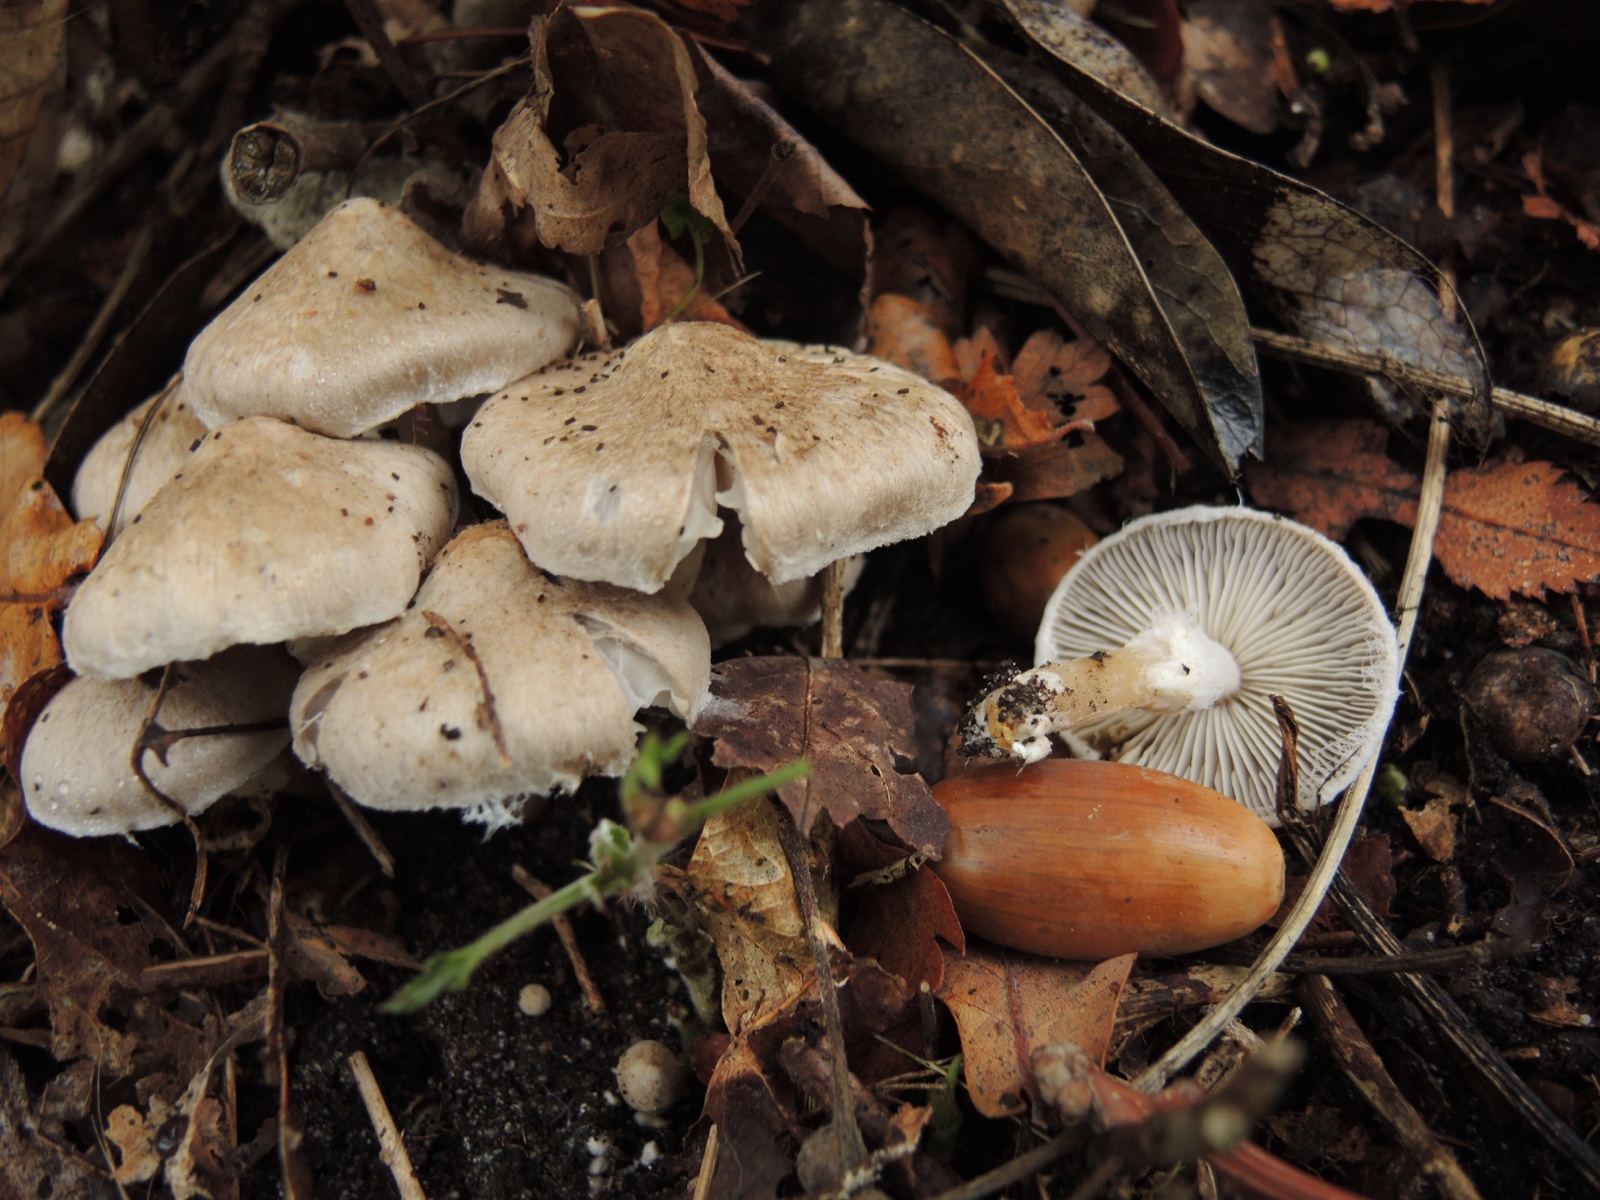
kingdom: Fungi
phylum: Basidiomycota
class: Agaricomycetes
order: Agaricales
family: Tricholomataceae
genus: Tricholoma
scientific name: Tricholoma cingulatum
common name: ring-ridderhat
